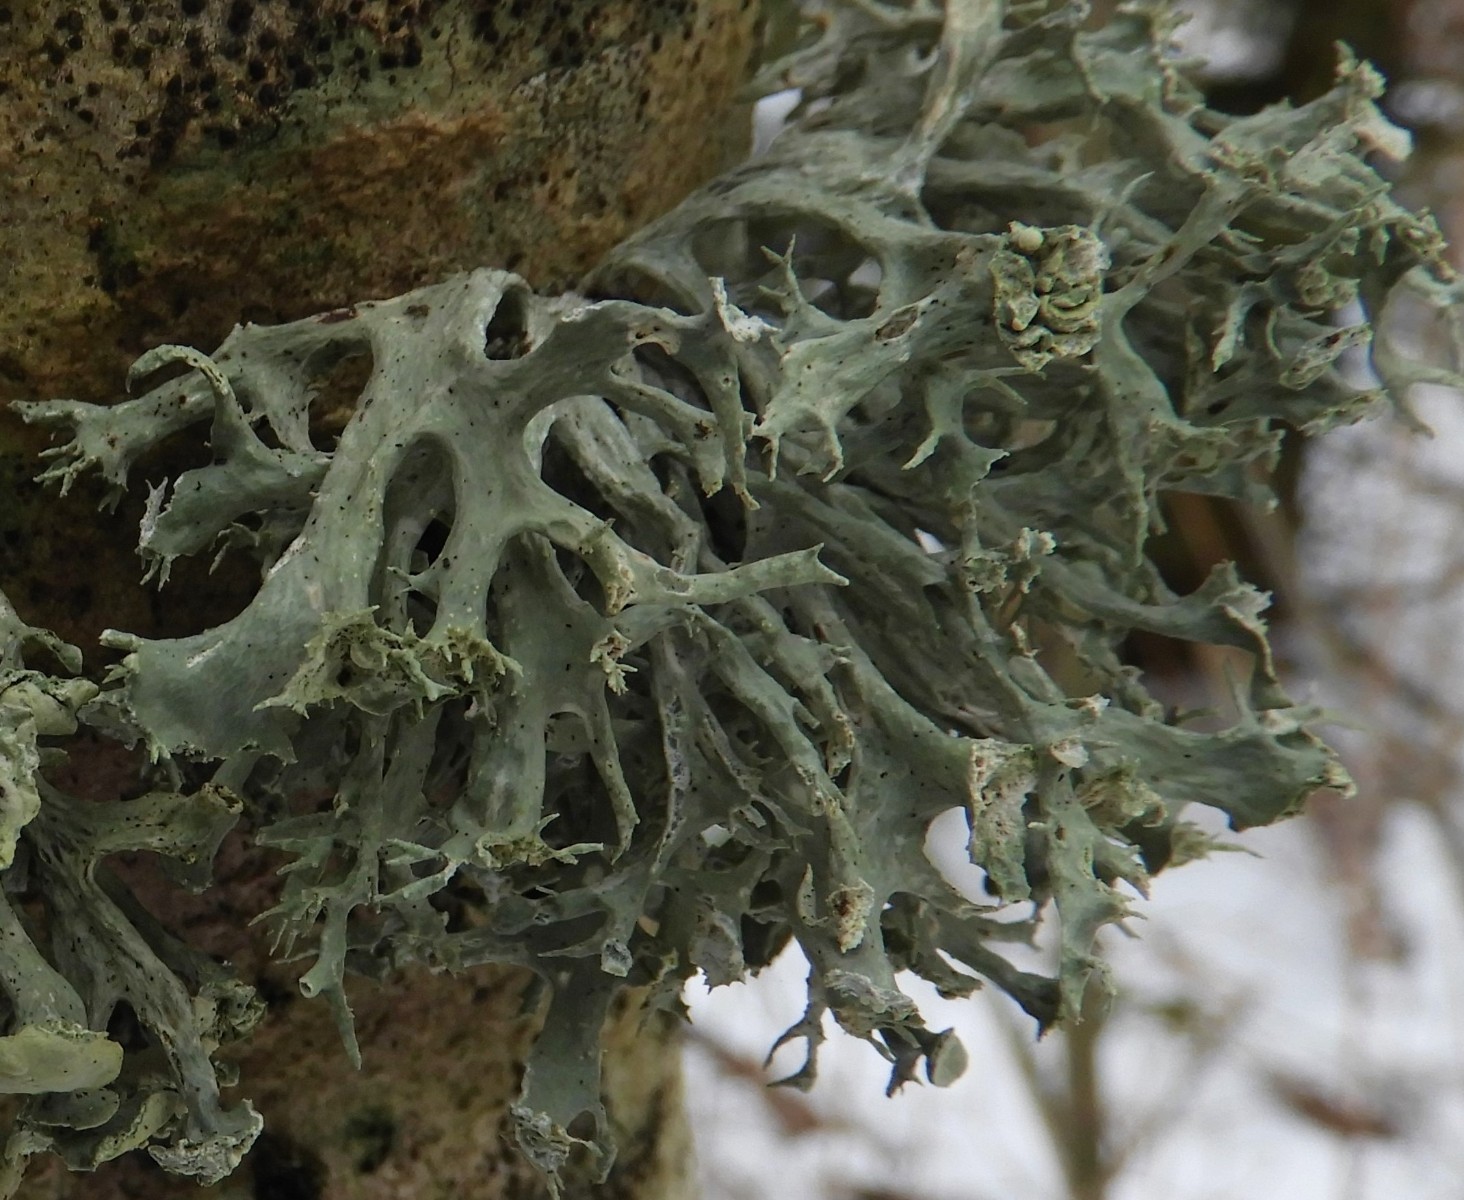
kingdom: Fungi
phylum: Ascomycota
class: Lecanoromycetes
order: Lecanorales
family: Ramalinaceae
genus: Ramalina
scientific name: Ramalina fastigiata
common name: tue-grenlav
